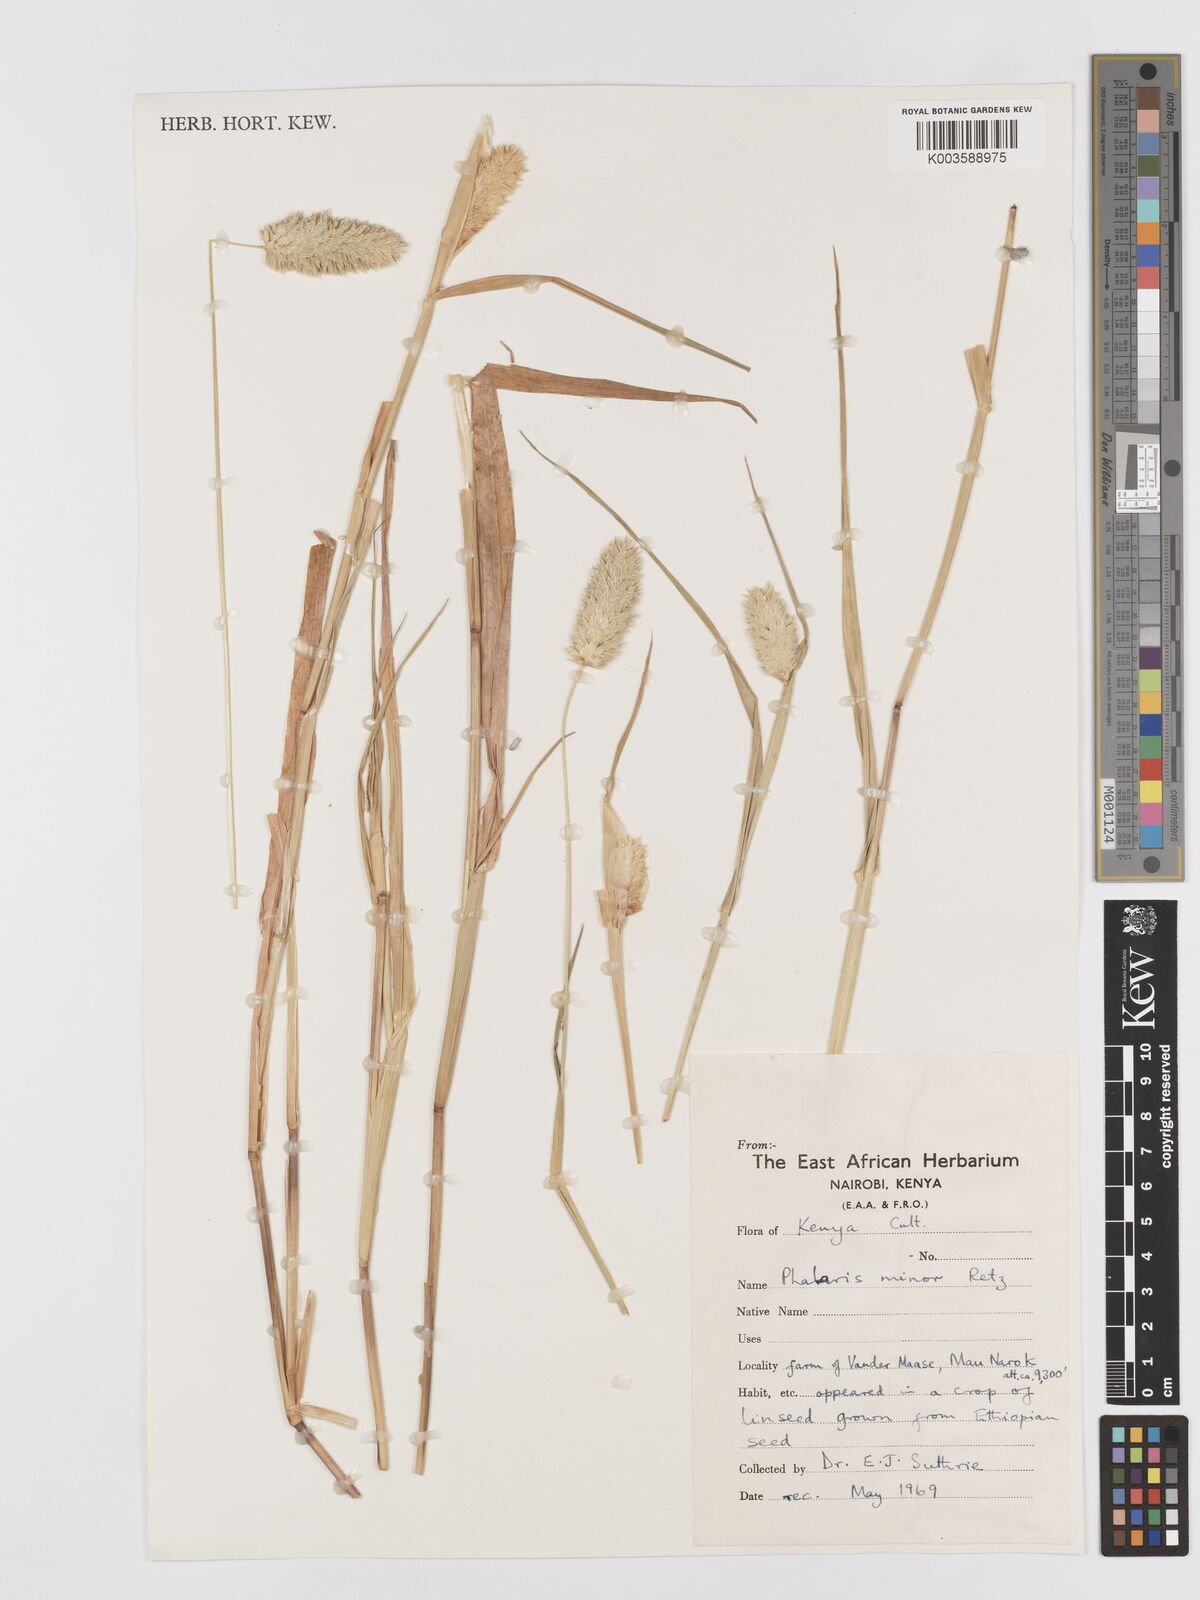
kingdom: Plantae
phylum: Tracheophyta
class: Liliopsida
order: Poales
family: Poaceae
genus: Phalaris
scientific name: Phalaris minor
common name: Littleseed canarygrass
